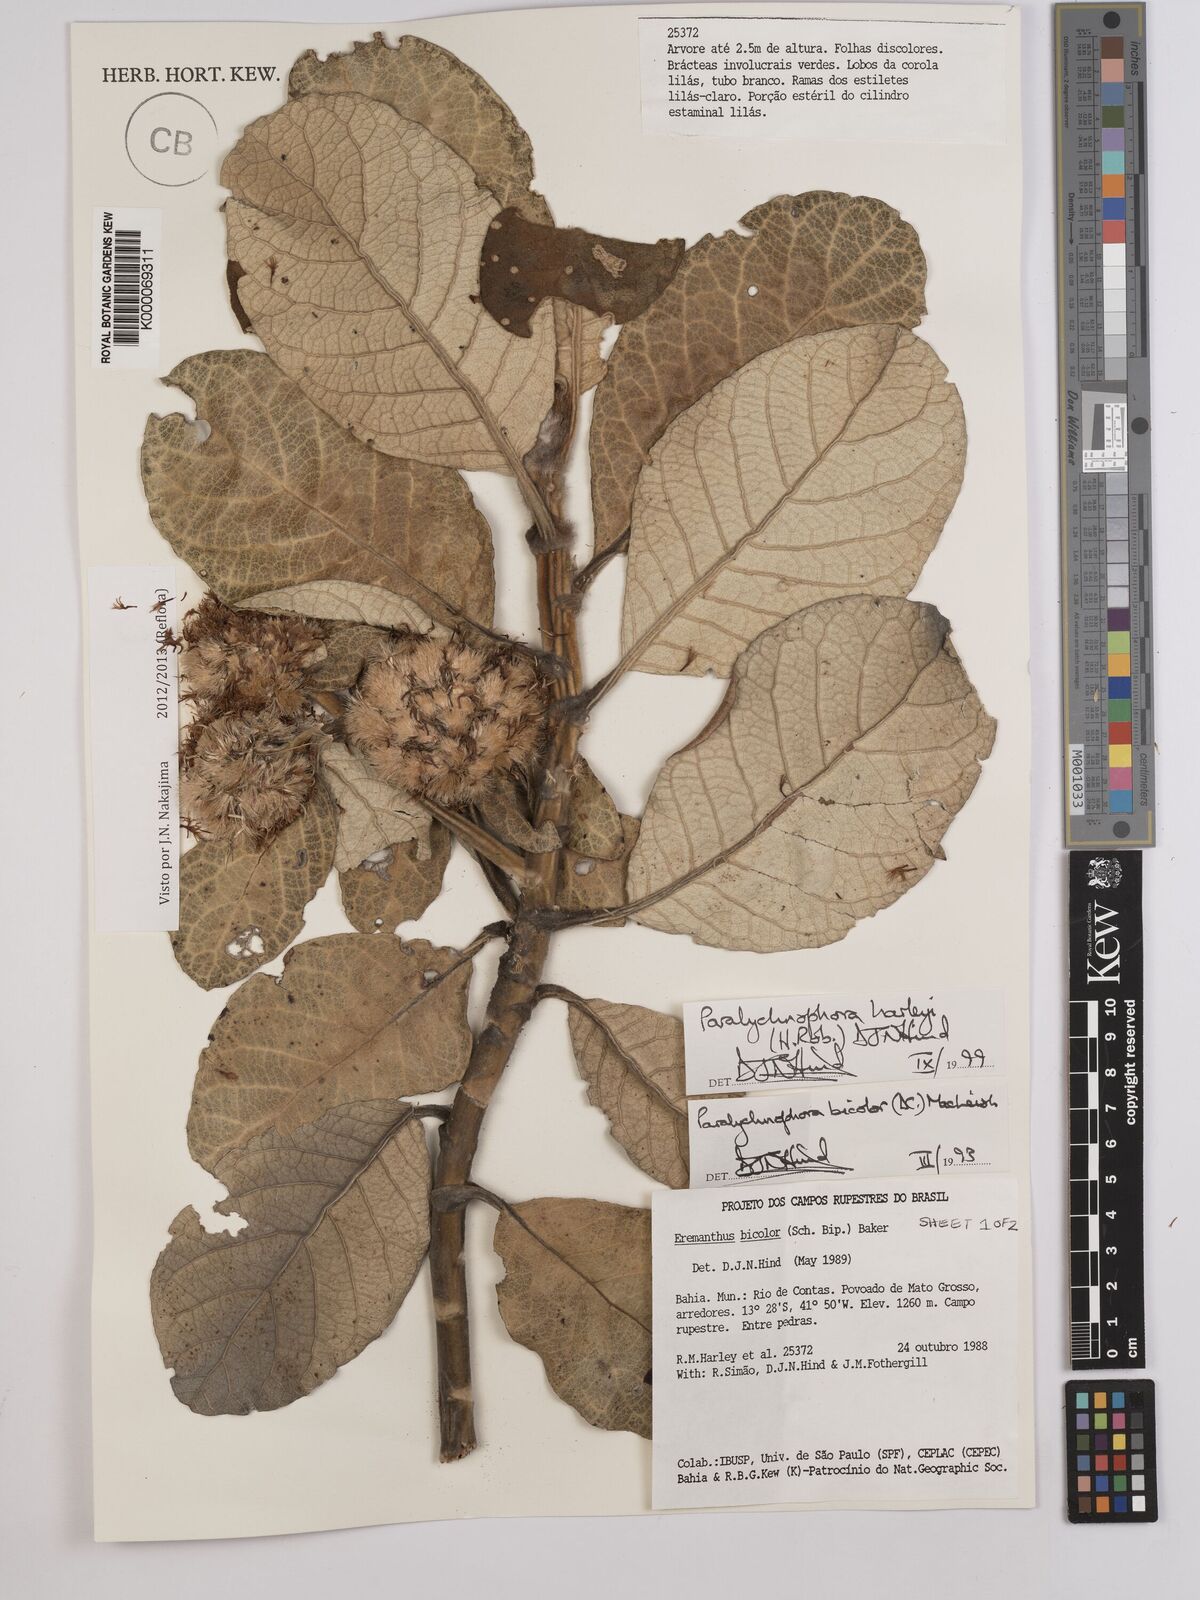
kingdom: Plantae
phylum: Tracheophyta
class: Magnoliopsida
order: Asterales
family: Asteraceae
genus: Paralychnophora
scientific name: Paralychnophora harleyi
